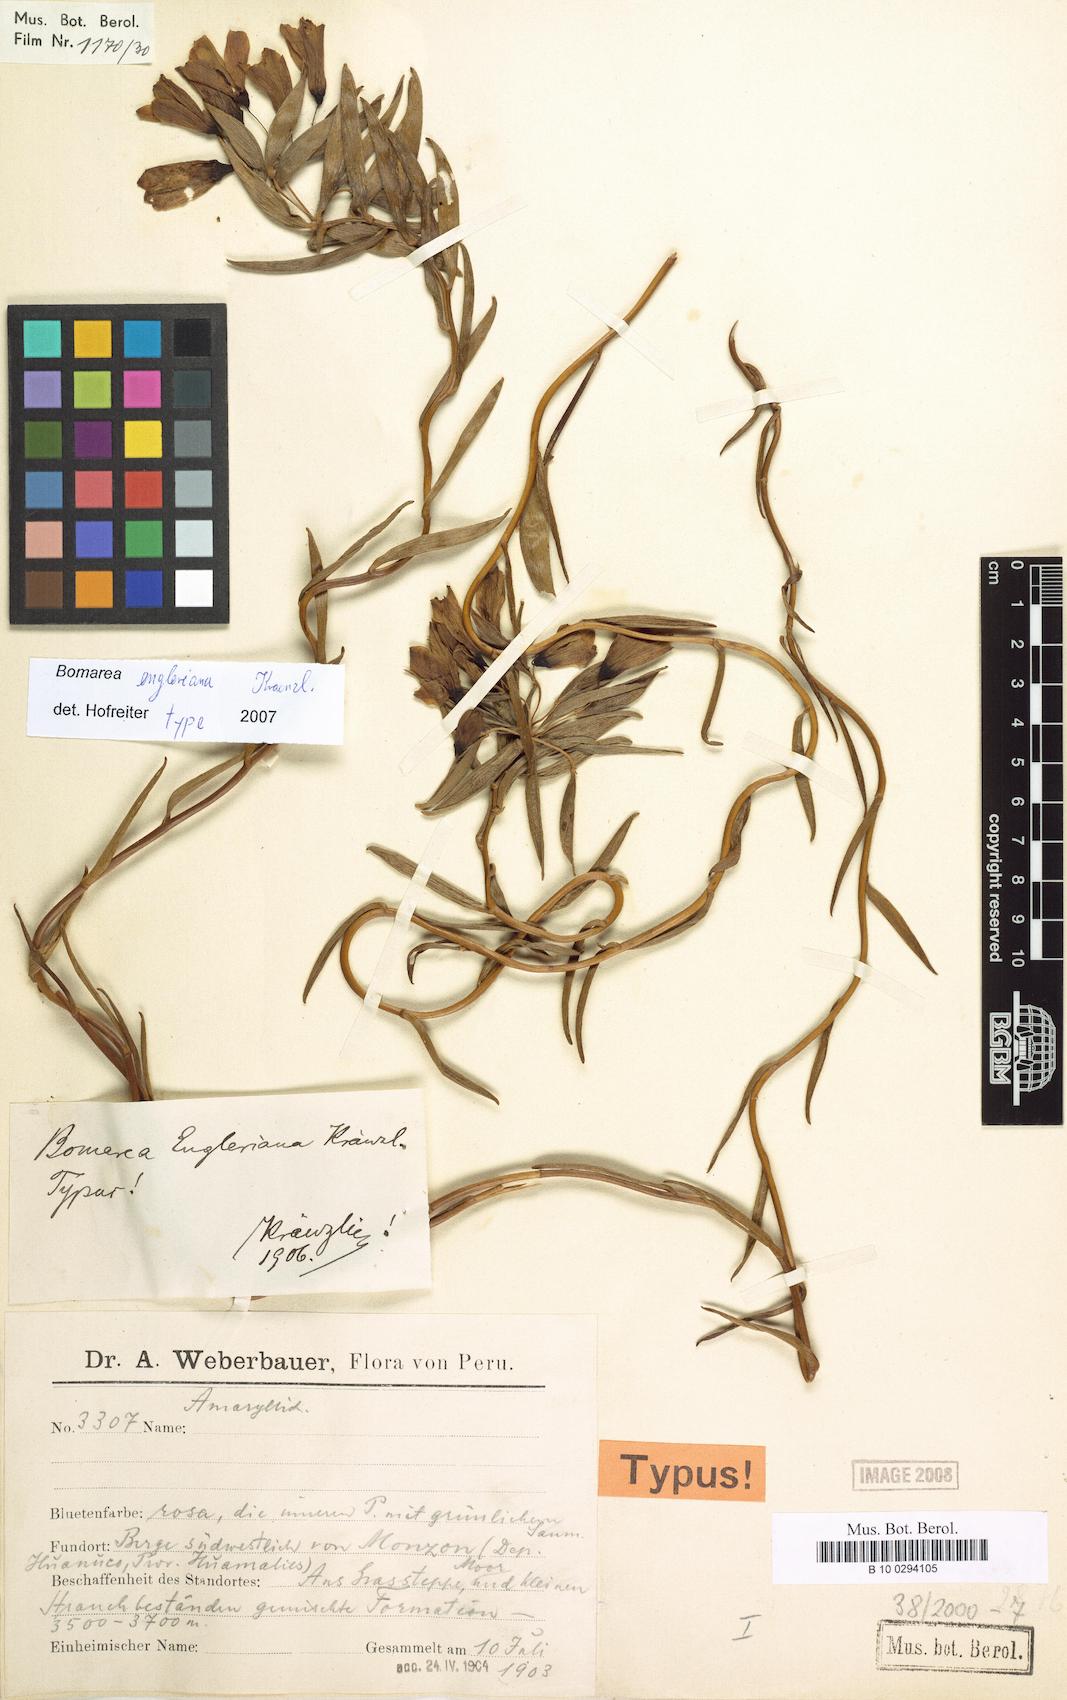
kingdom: Plantae
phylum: Tracheophyta
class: Liliopsida
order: Liliales
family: Alstroemeriaceae
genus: Bomarea
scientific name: Bomarea engleriana
